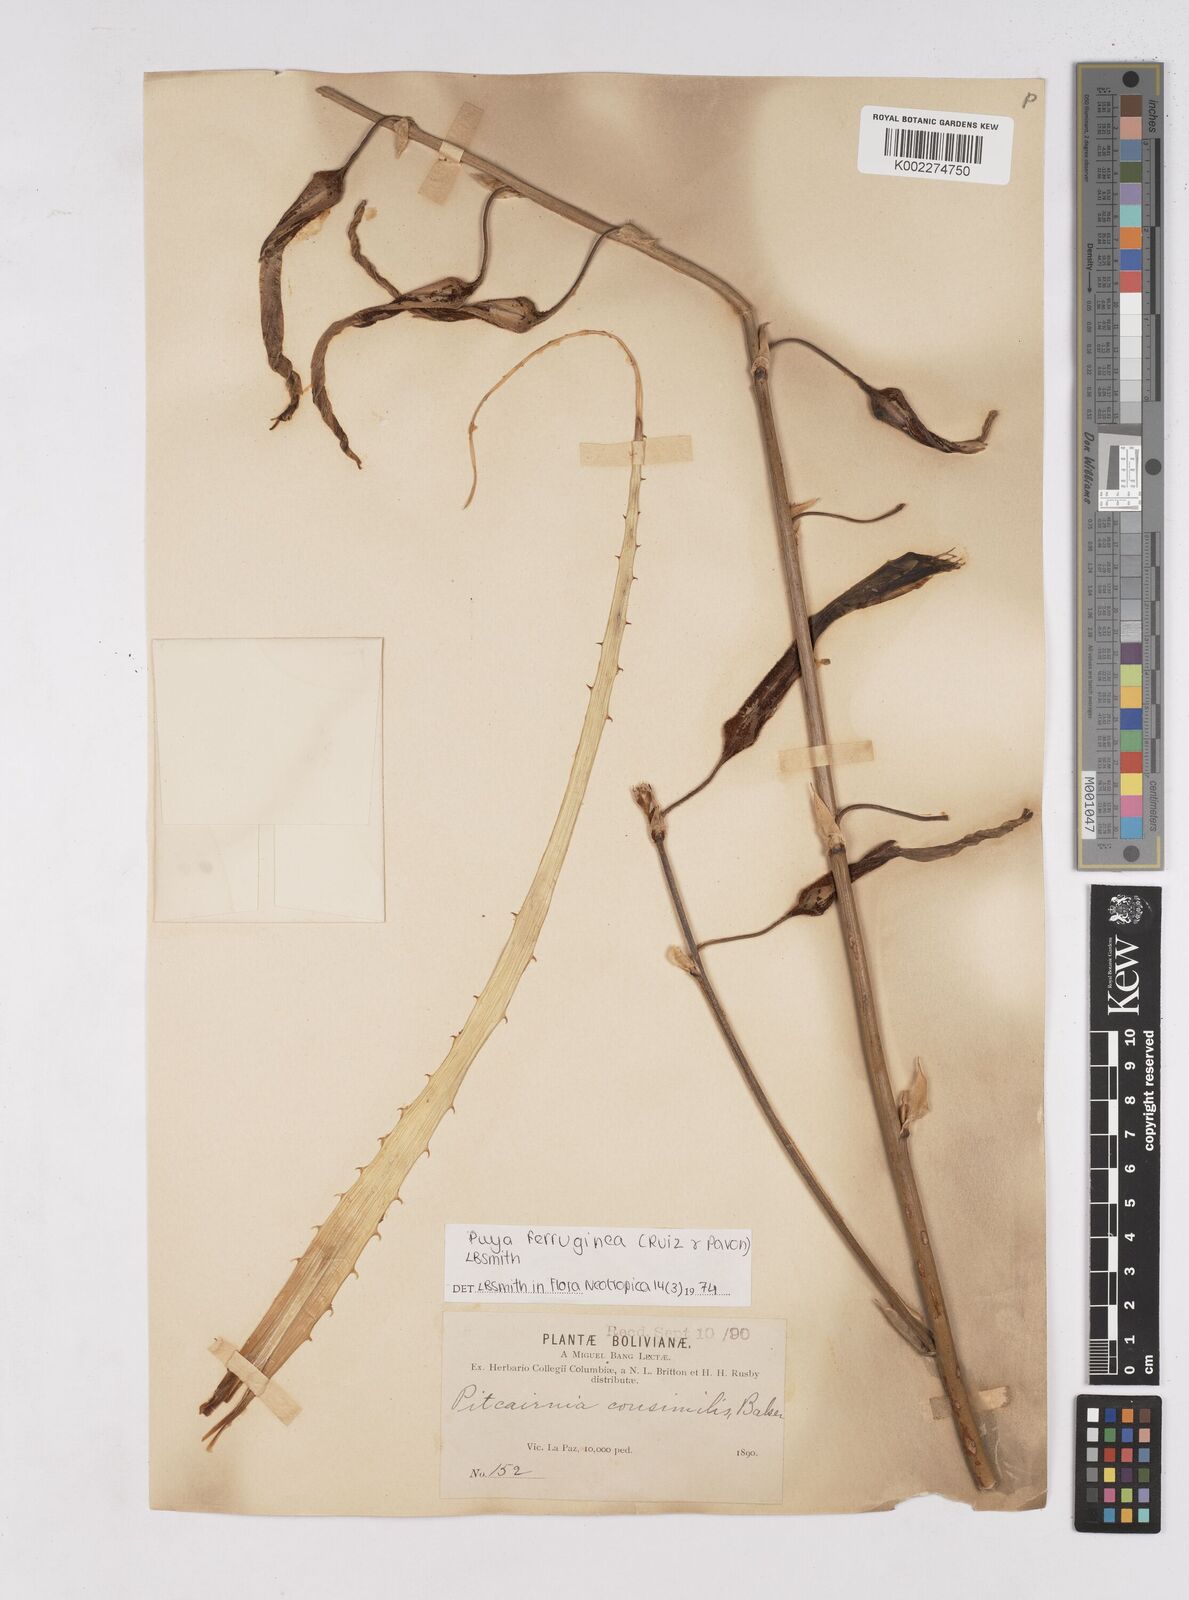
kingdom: Plantae
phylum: Tracheophyta
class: Liliopsida
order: Poales
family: Bromeliaceae
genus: Puya
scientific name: Puya ferruginea
